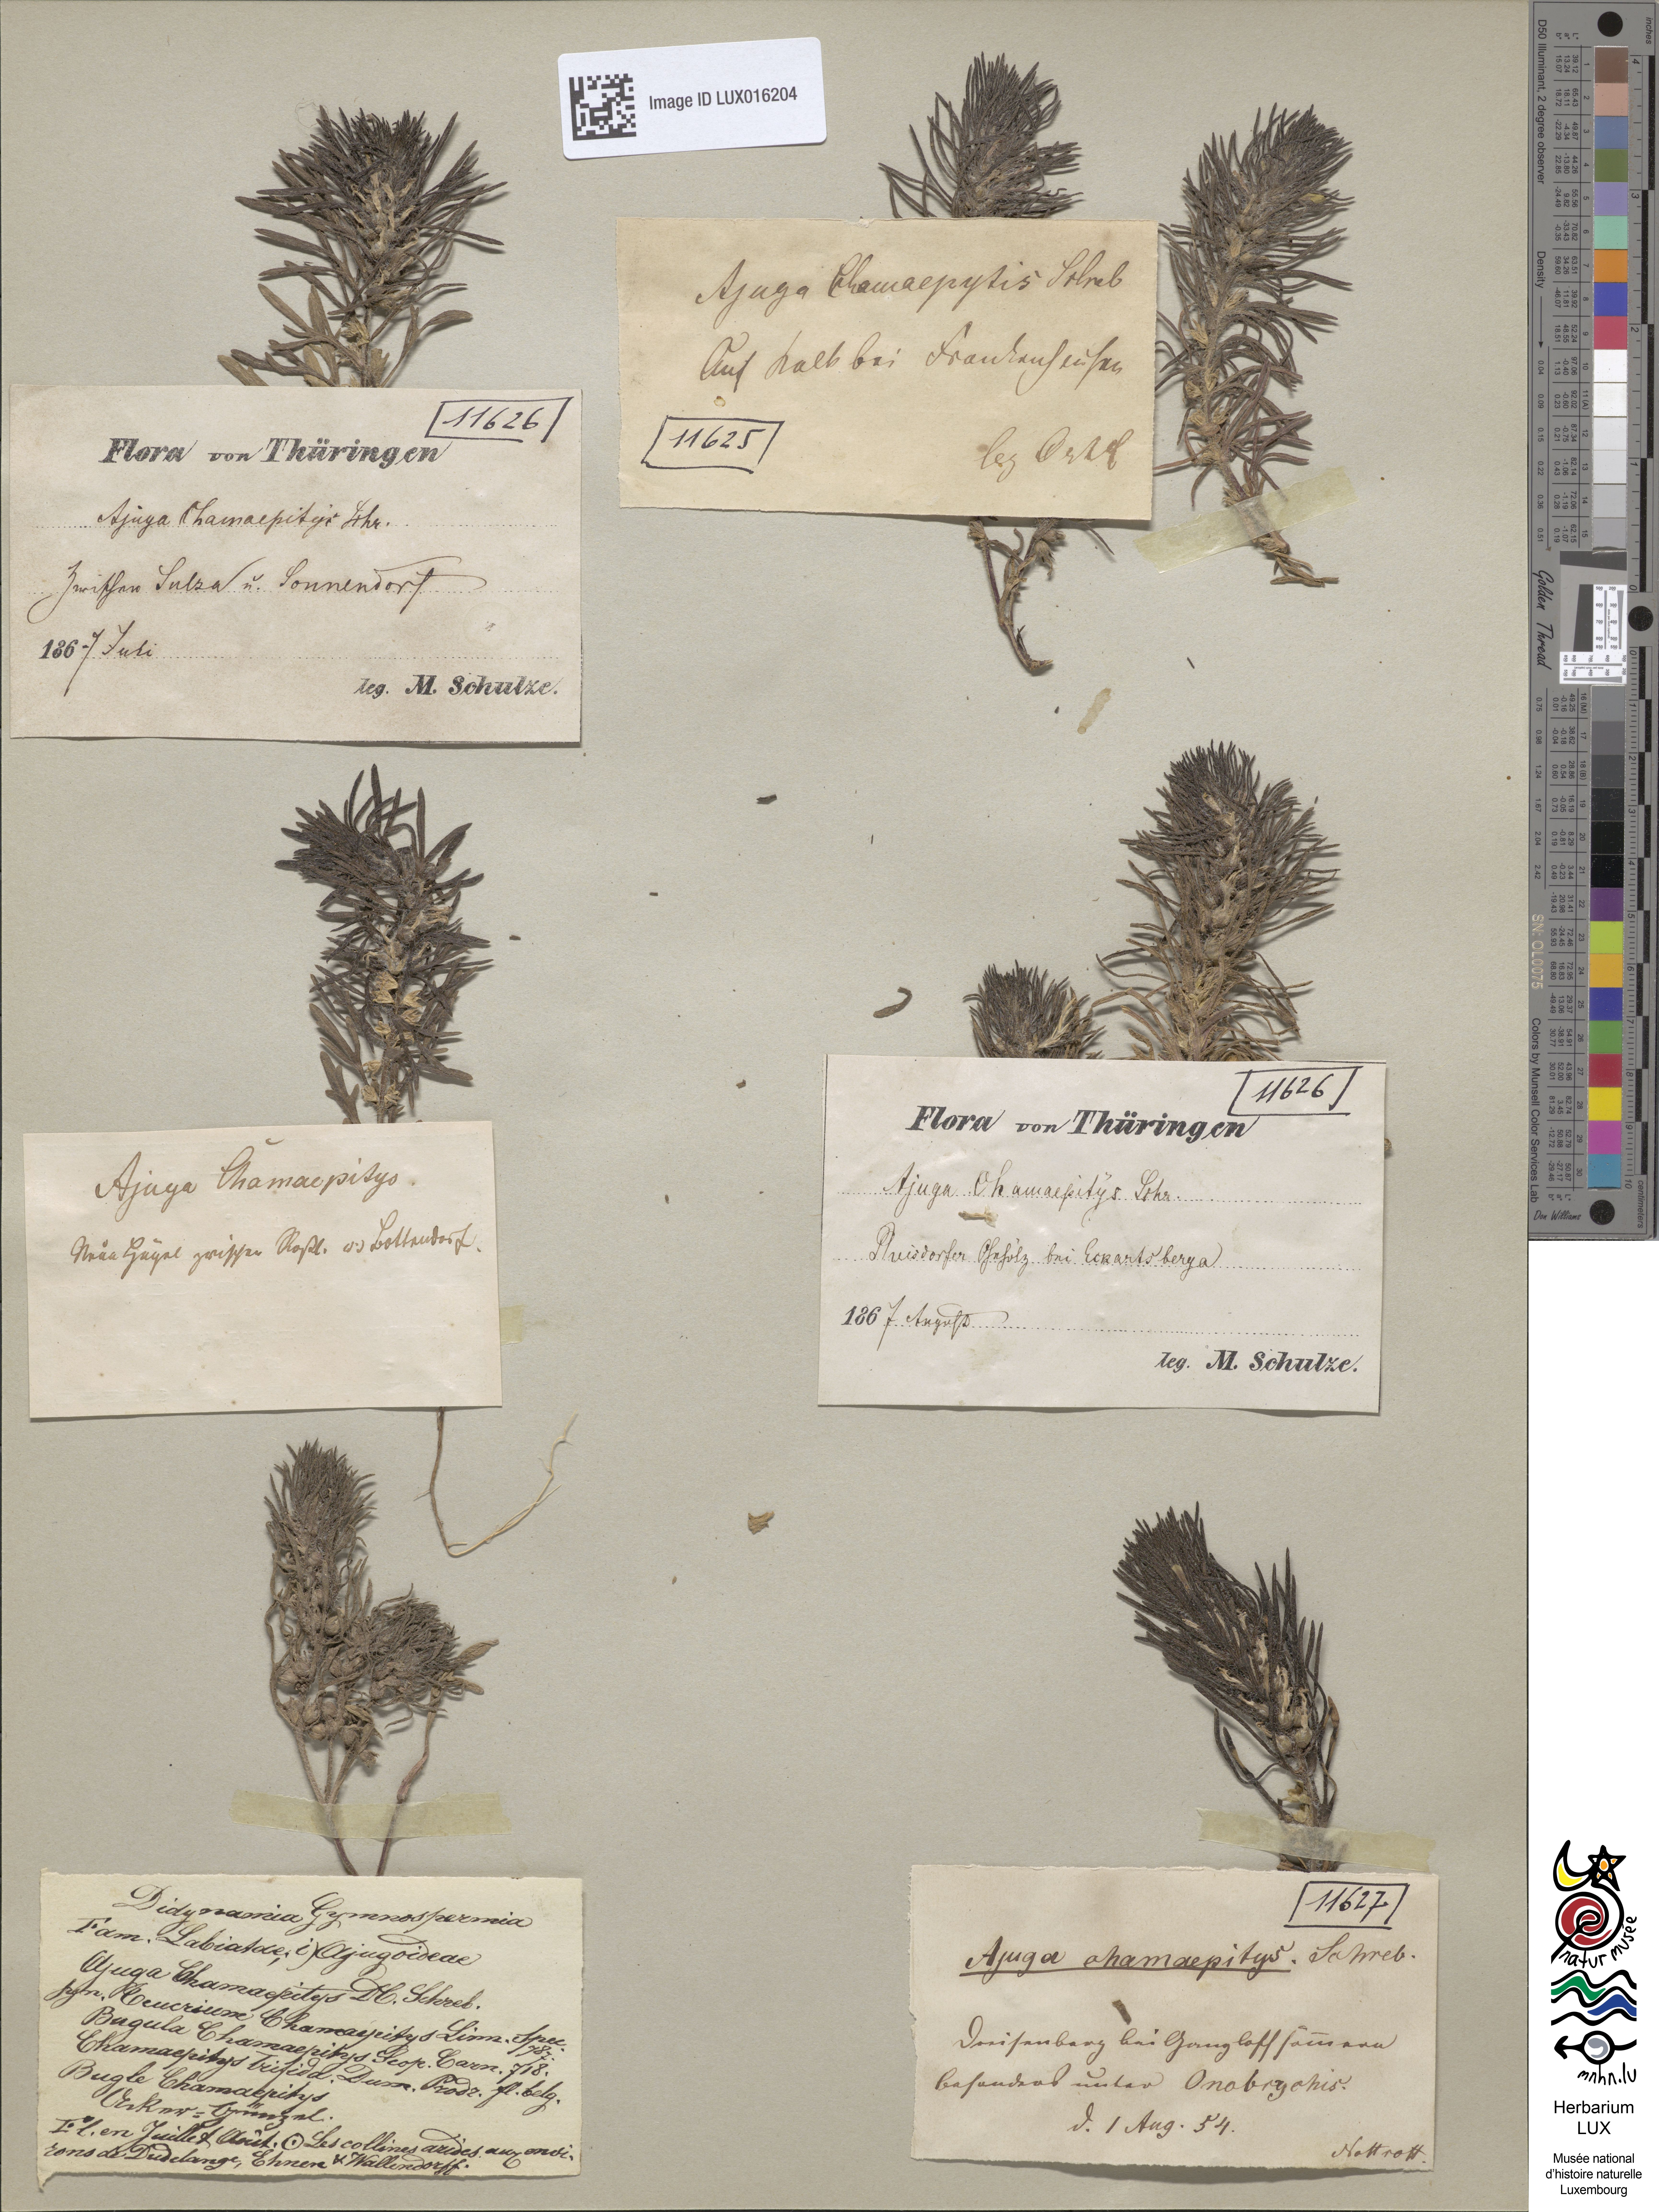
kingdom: Plantae
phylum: Tracheophyta
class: Magnoliopsida
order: Lamiales
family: Lamiaceae
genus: Ajuga
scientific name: Ajuga chamaepitys
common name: Ground-pine
